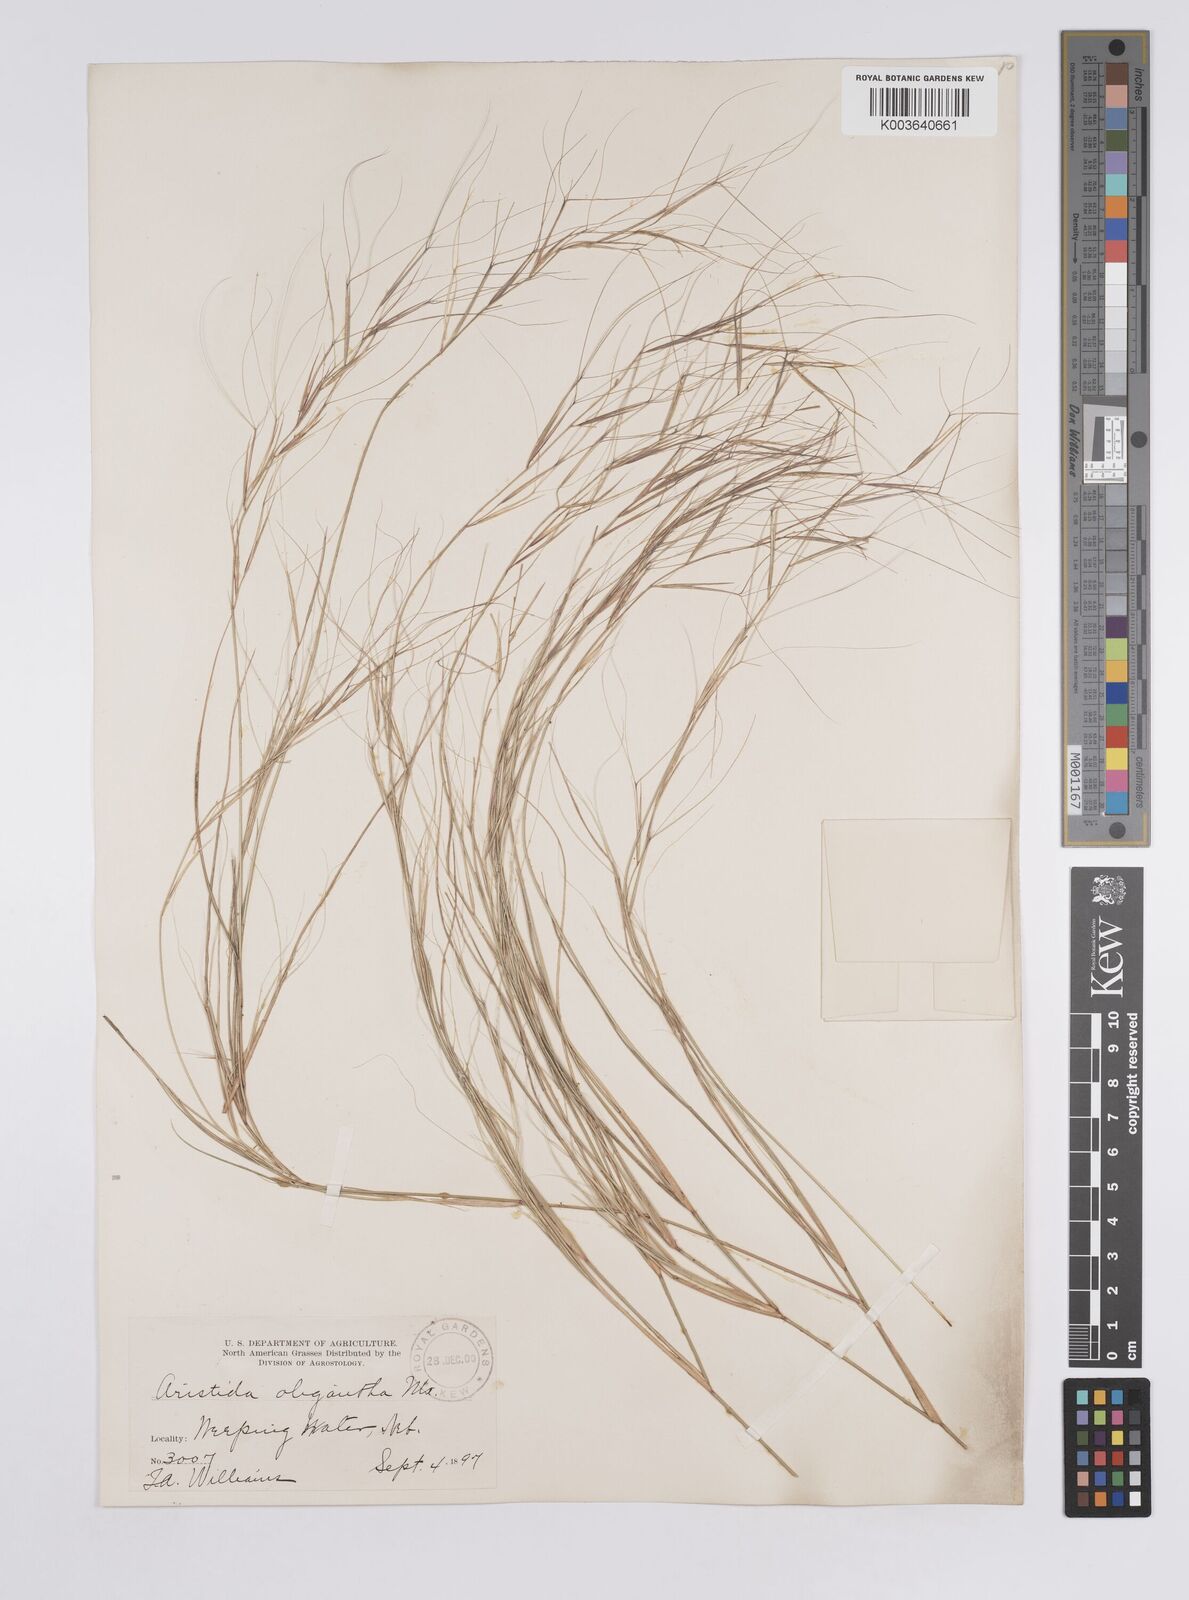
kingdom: Plantae
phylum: Tracheophyta
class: Liliopsida
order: Poales
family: Poaceae
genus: Aristida
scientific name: Aristida oligantha
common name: Few-flowered aristida
